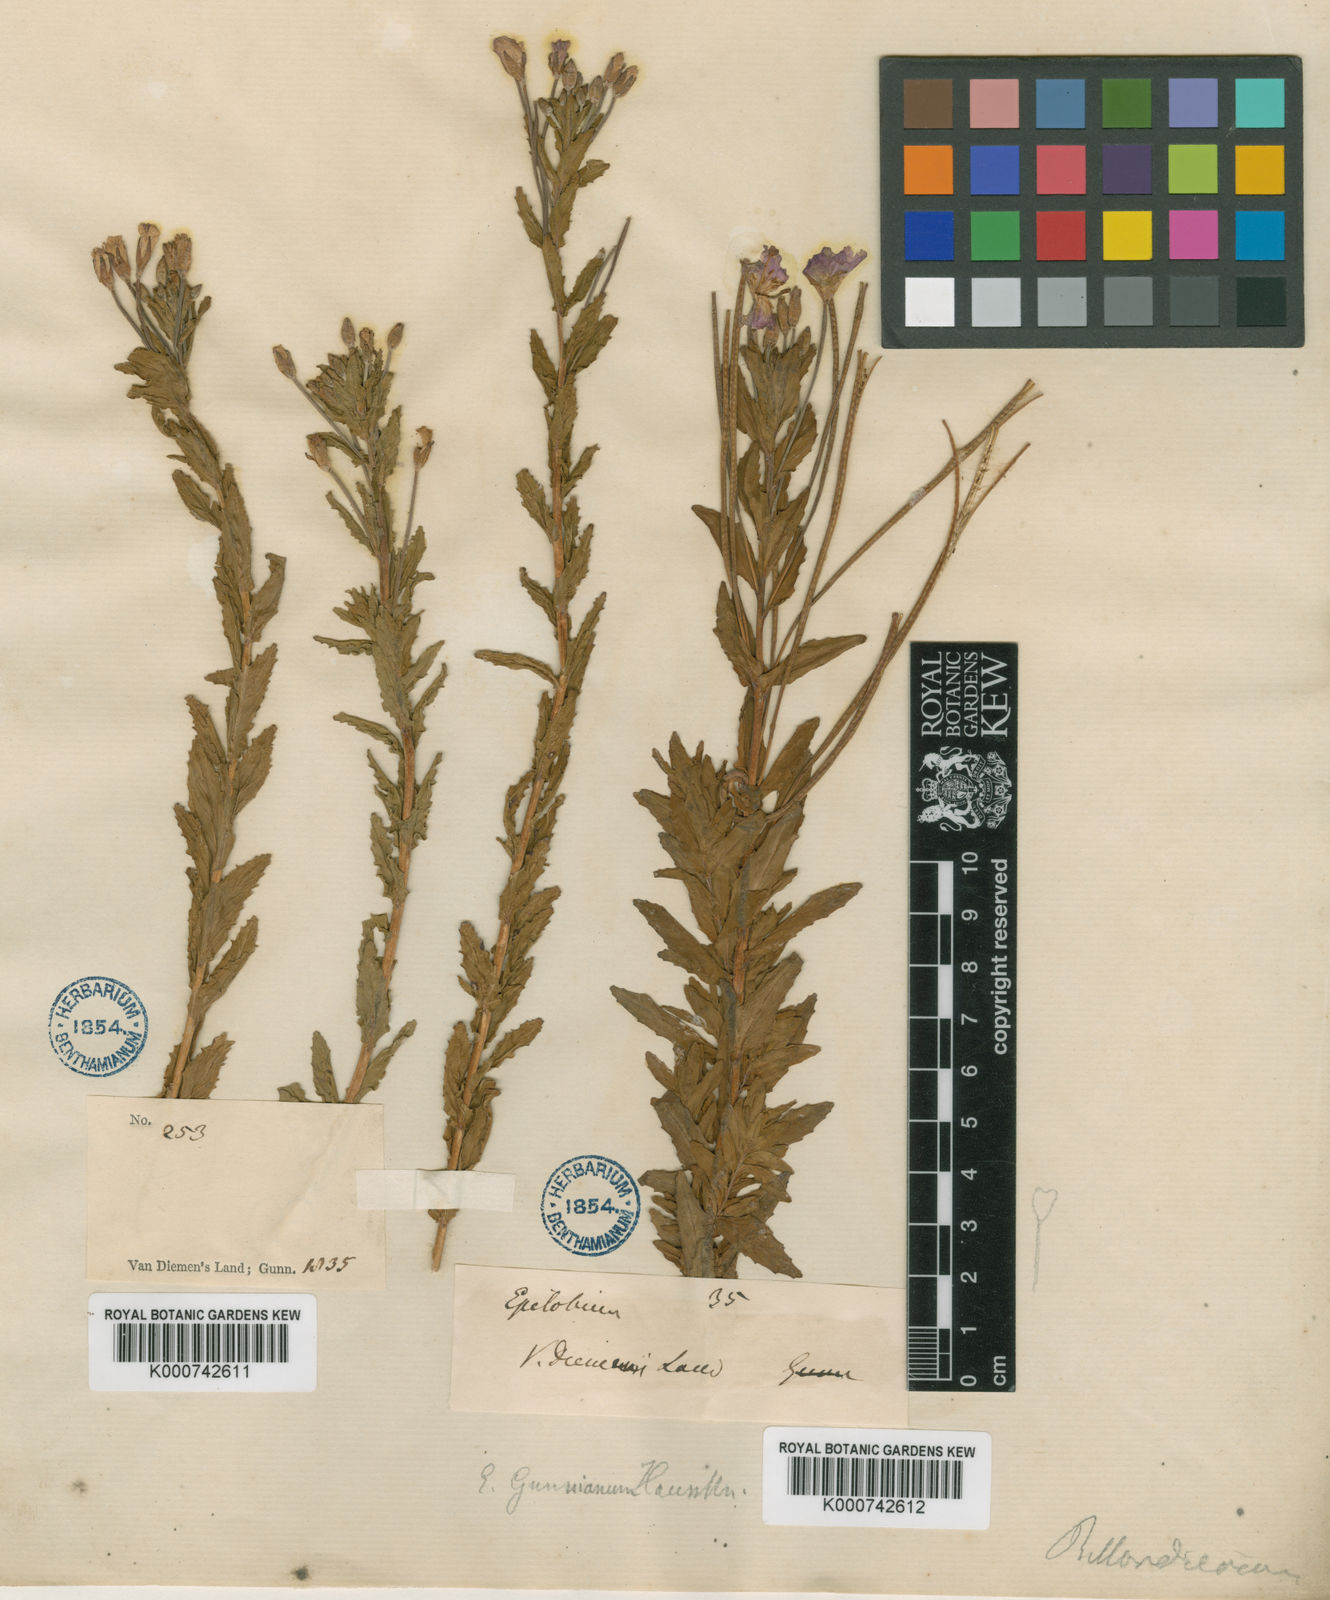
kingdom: Plantae
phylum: Tracheophyta
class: Magnoliopsida
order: Myrtales
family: Onagraceae
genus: Epilobium
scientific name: Epilobium gunnianum
